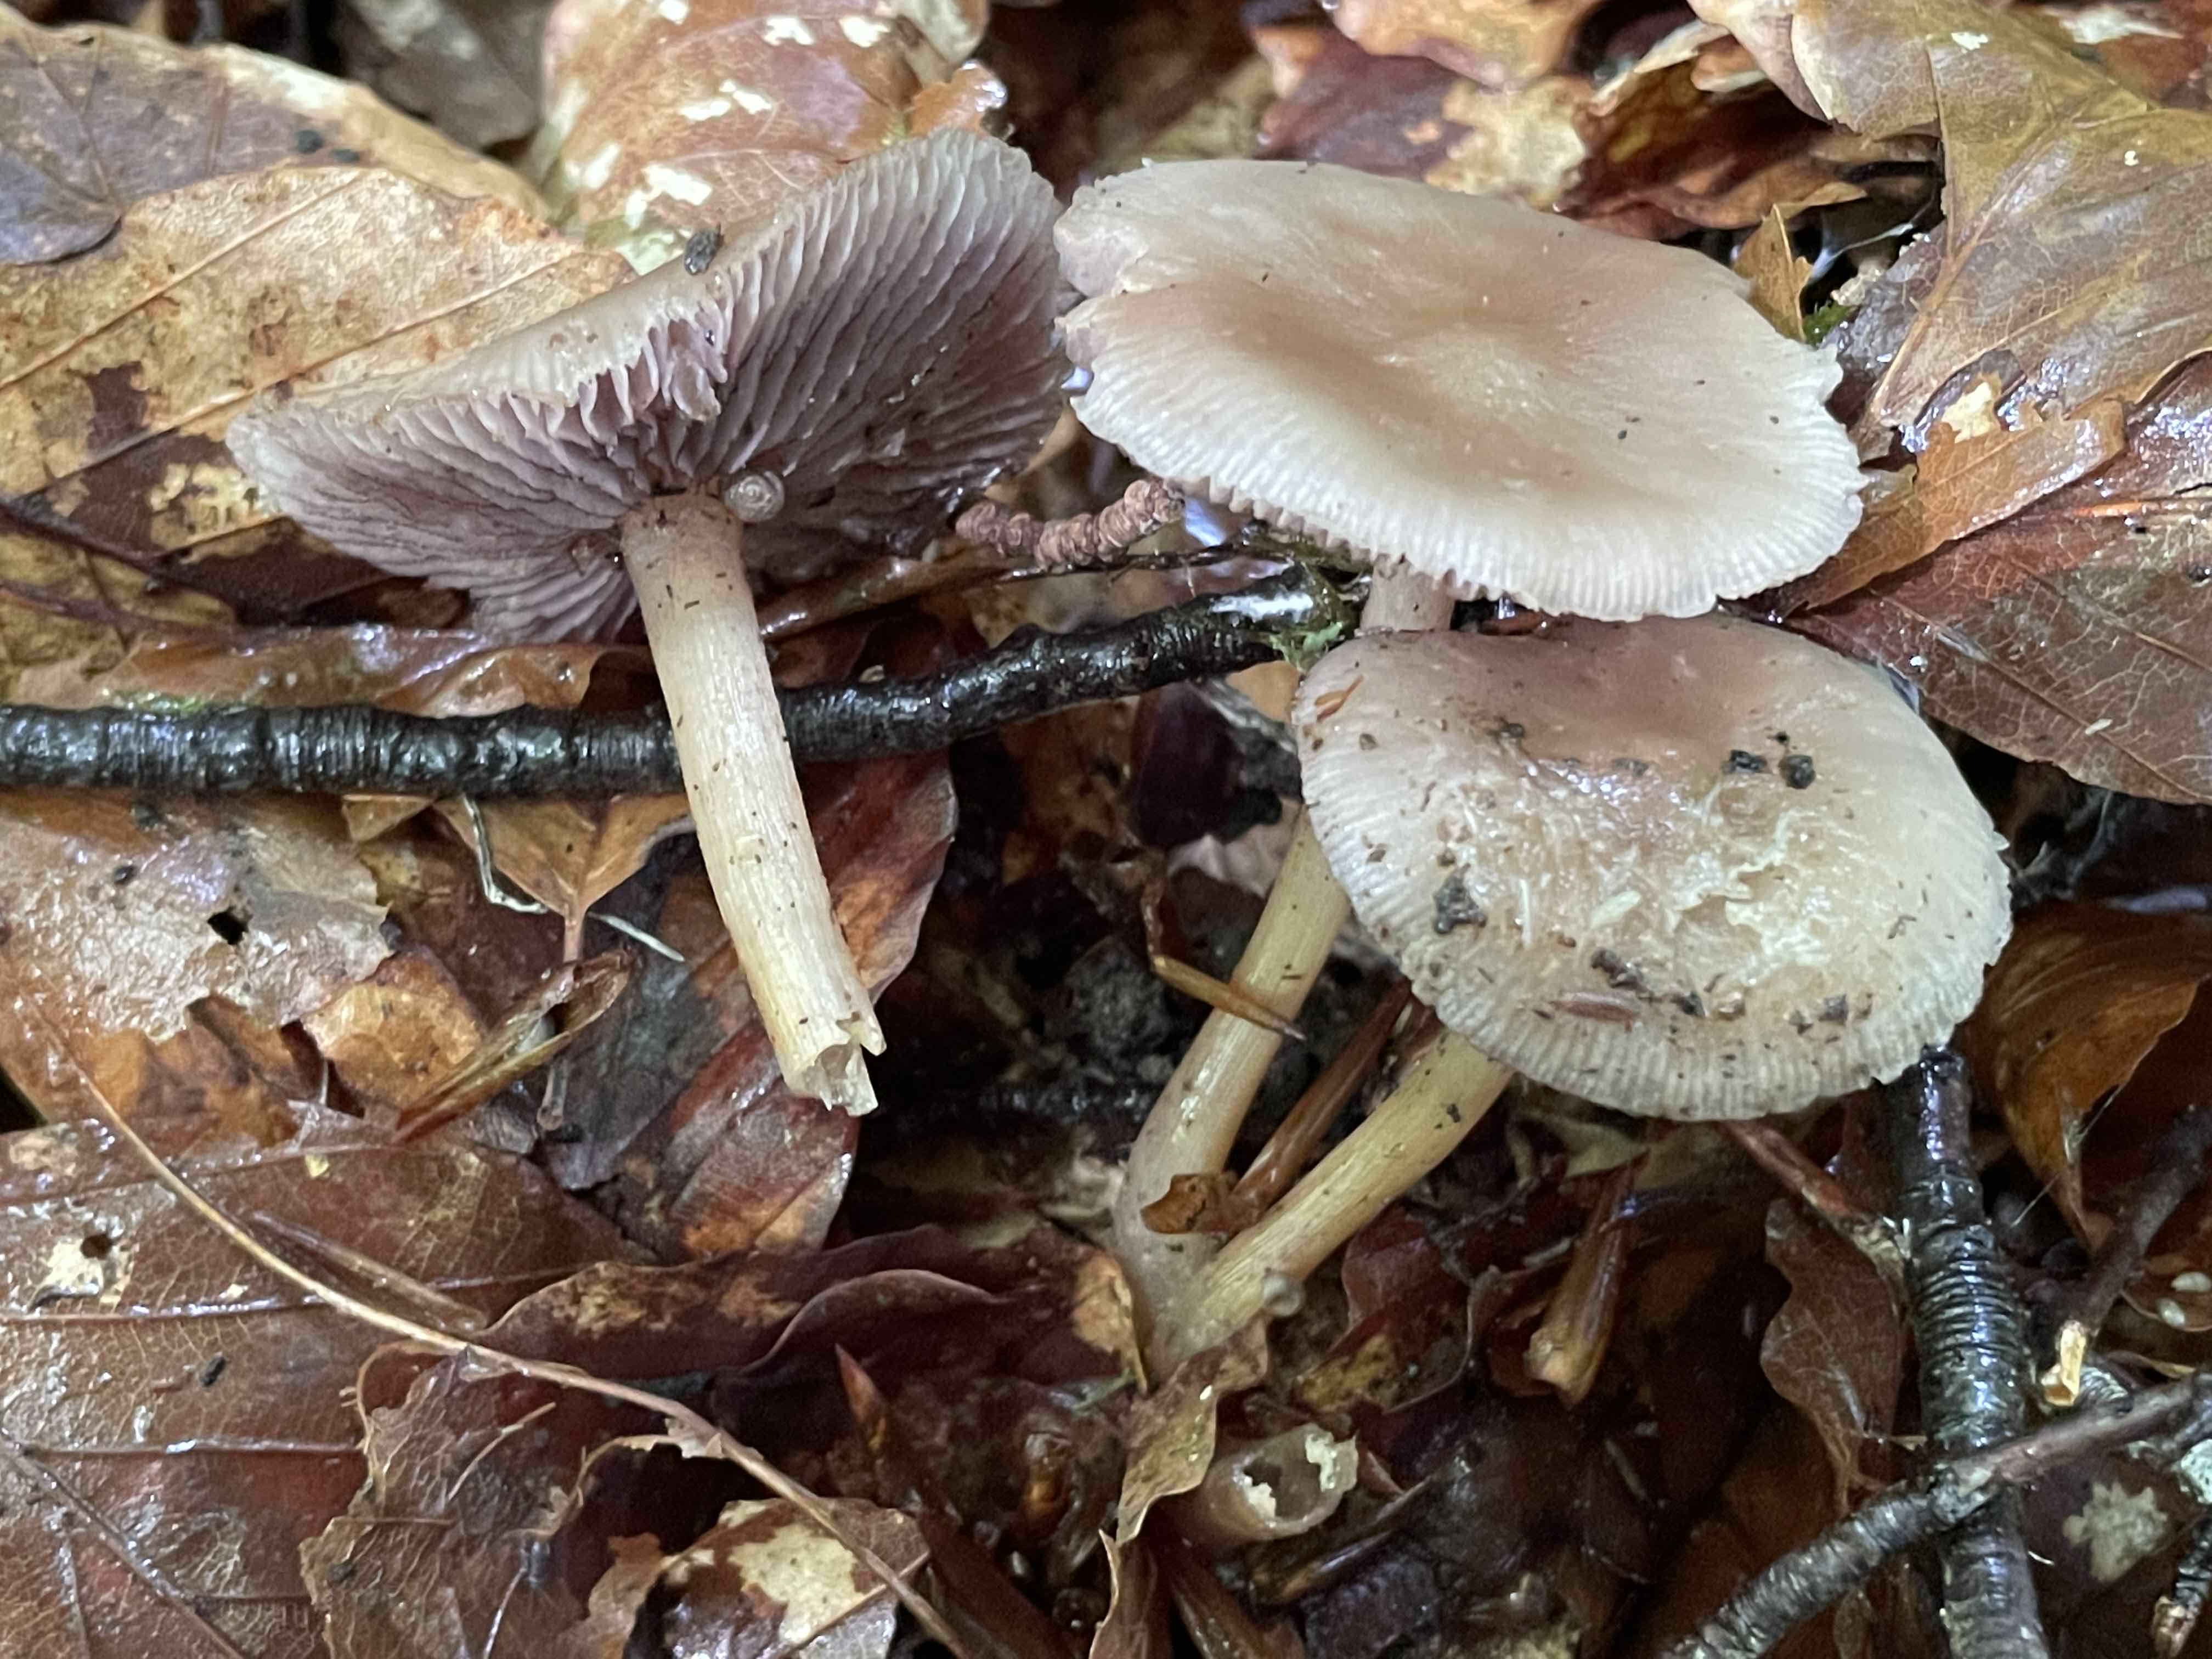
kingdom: Fungi
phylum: Basidiomycota
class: Agaricomycetes
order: Agaricales
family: Mycenaceae
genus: Mycena
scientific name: Mycena pelianthina
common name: mørkbladet huesvamp
